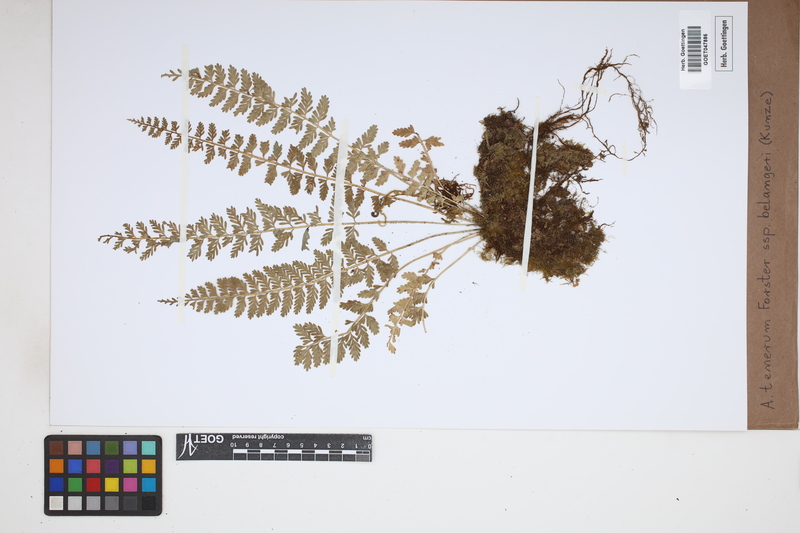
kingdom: Plantae
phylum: Tracheophyta
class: Polypodiopsida
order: Polypodiales
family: Aspleniaceae
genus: Asplenium
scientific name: Asplenium tenerum
